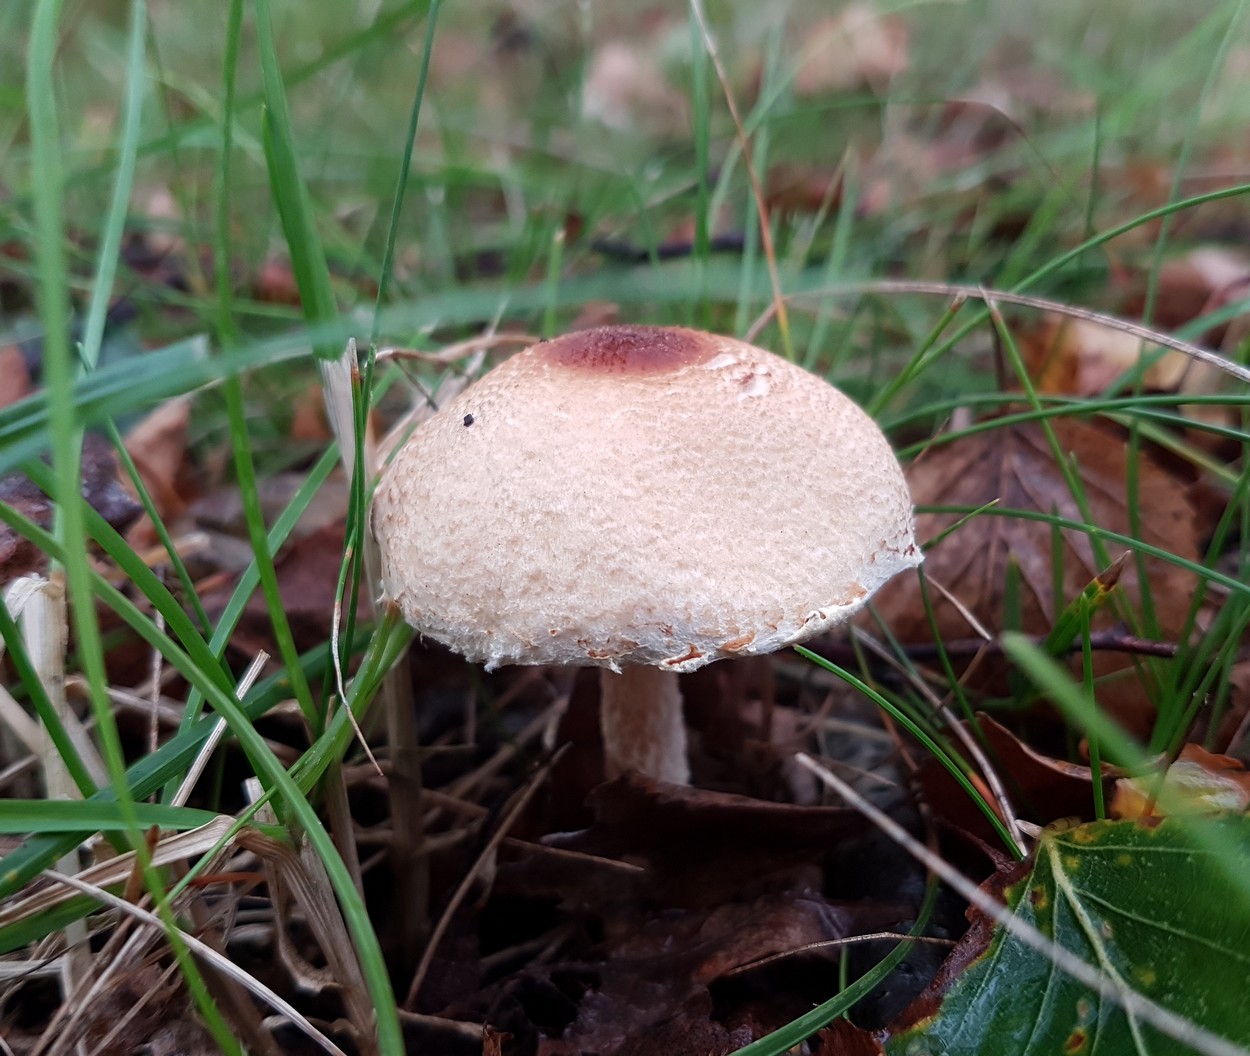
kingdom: Fungi
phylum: Basidiomycota
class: Agaricomycetes
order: Agaricales
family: Agaricaceae
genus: Lepiota
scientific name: Lepiota magnispora
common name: gulfnugget parasolhat
